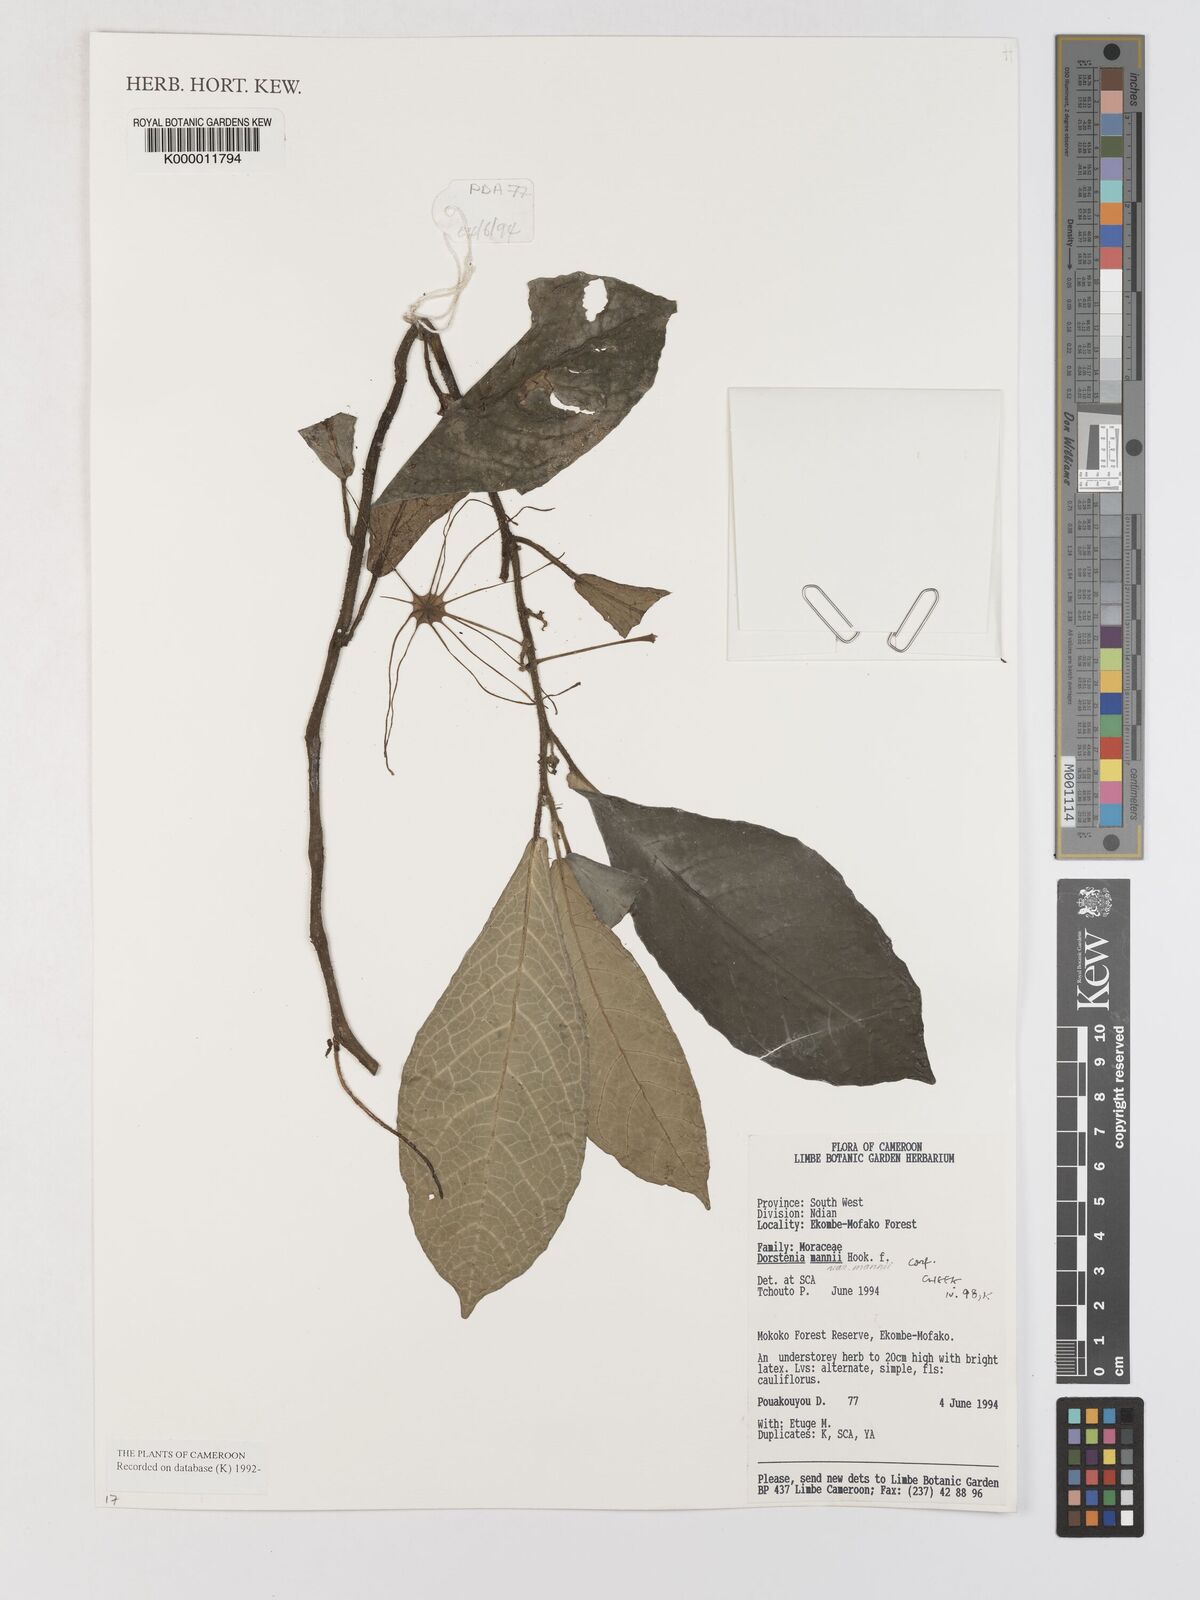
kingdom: Plantae
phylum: Tracheophyta
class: Magnoliopsida
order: Rosales
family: Moraceae
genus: Dorstenia
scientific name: Dorstenia mannii
